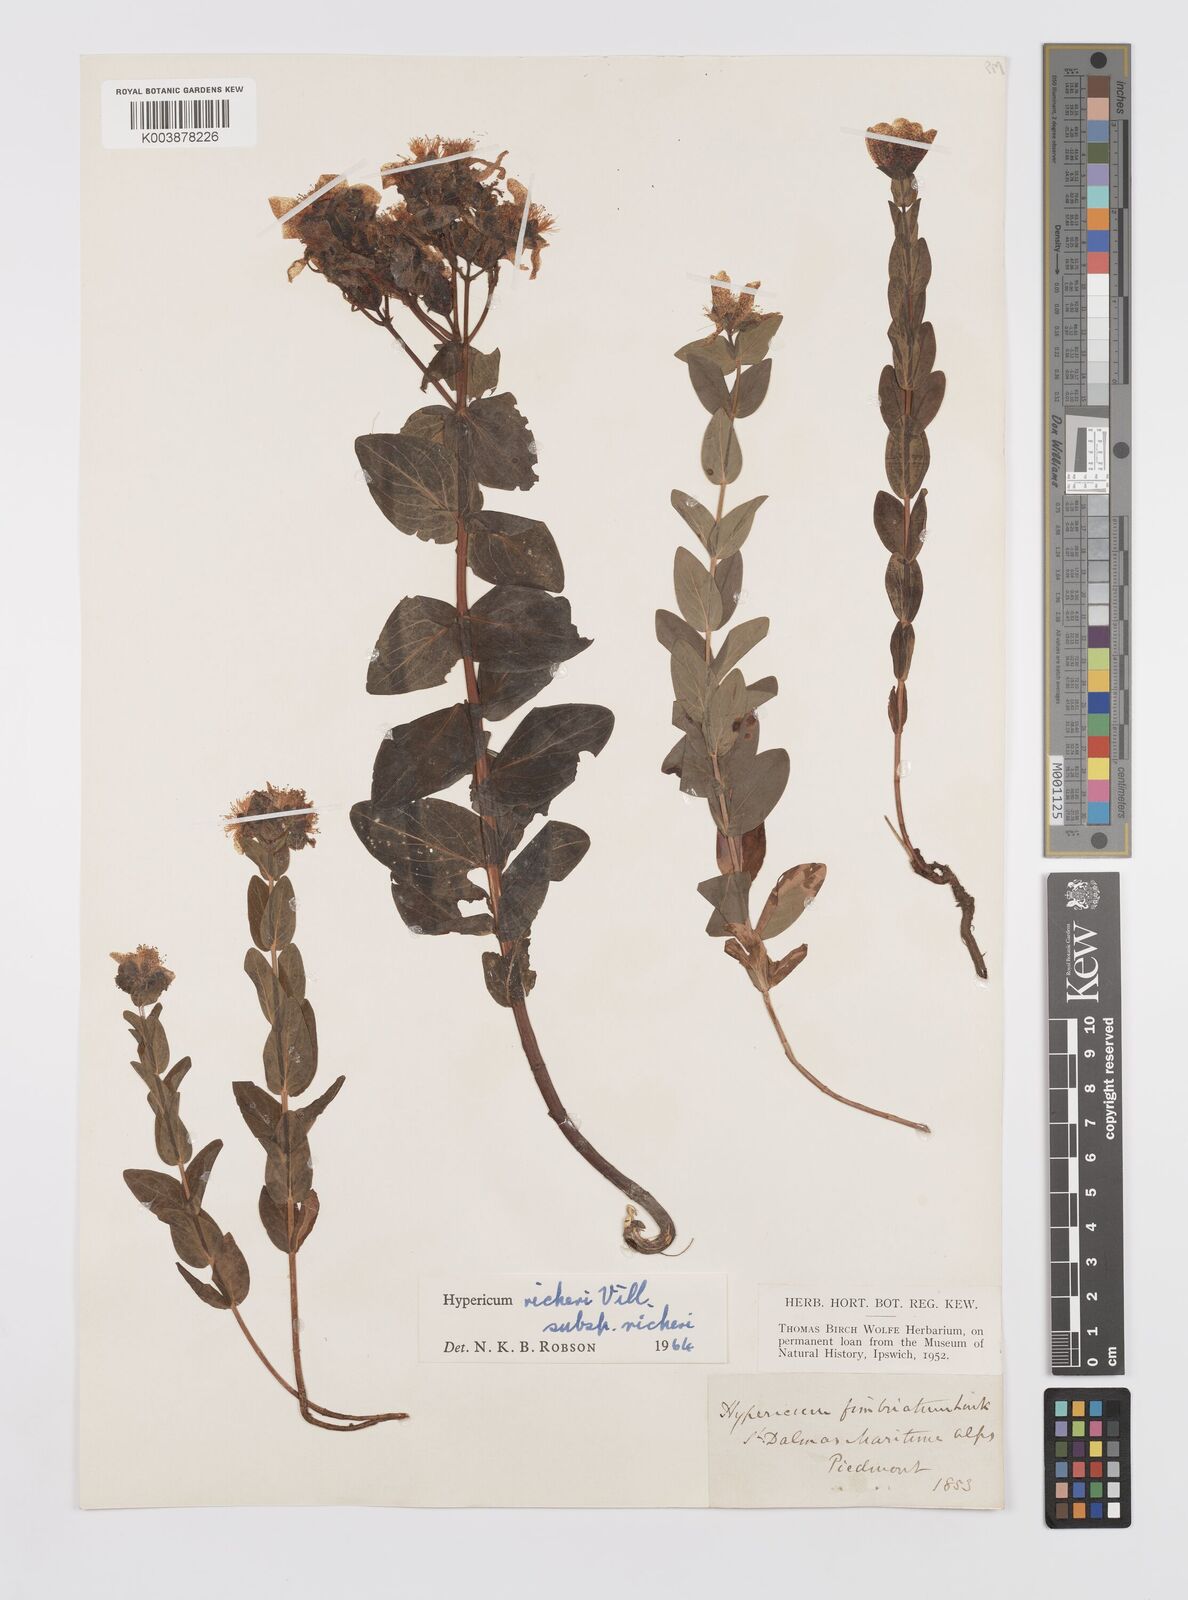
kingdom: Plantae
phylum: Tracheophyta
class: Magnoliopsida
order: Malpighiales
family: Hypericaceae
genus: Hypericum
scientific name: Hypericum richeri
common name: Alpine st john's-wort
